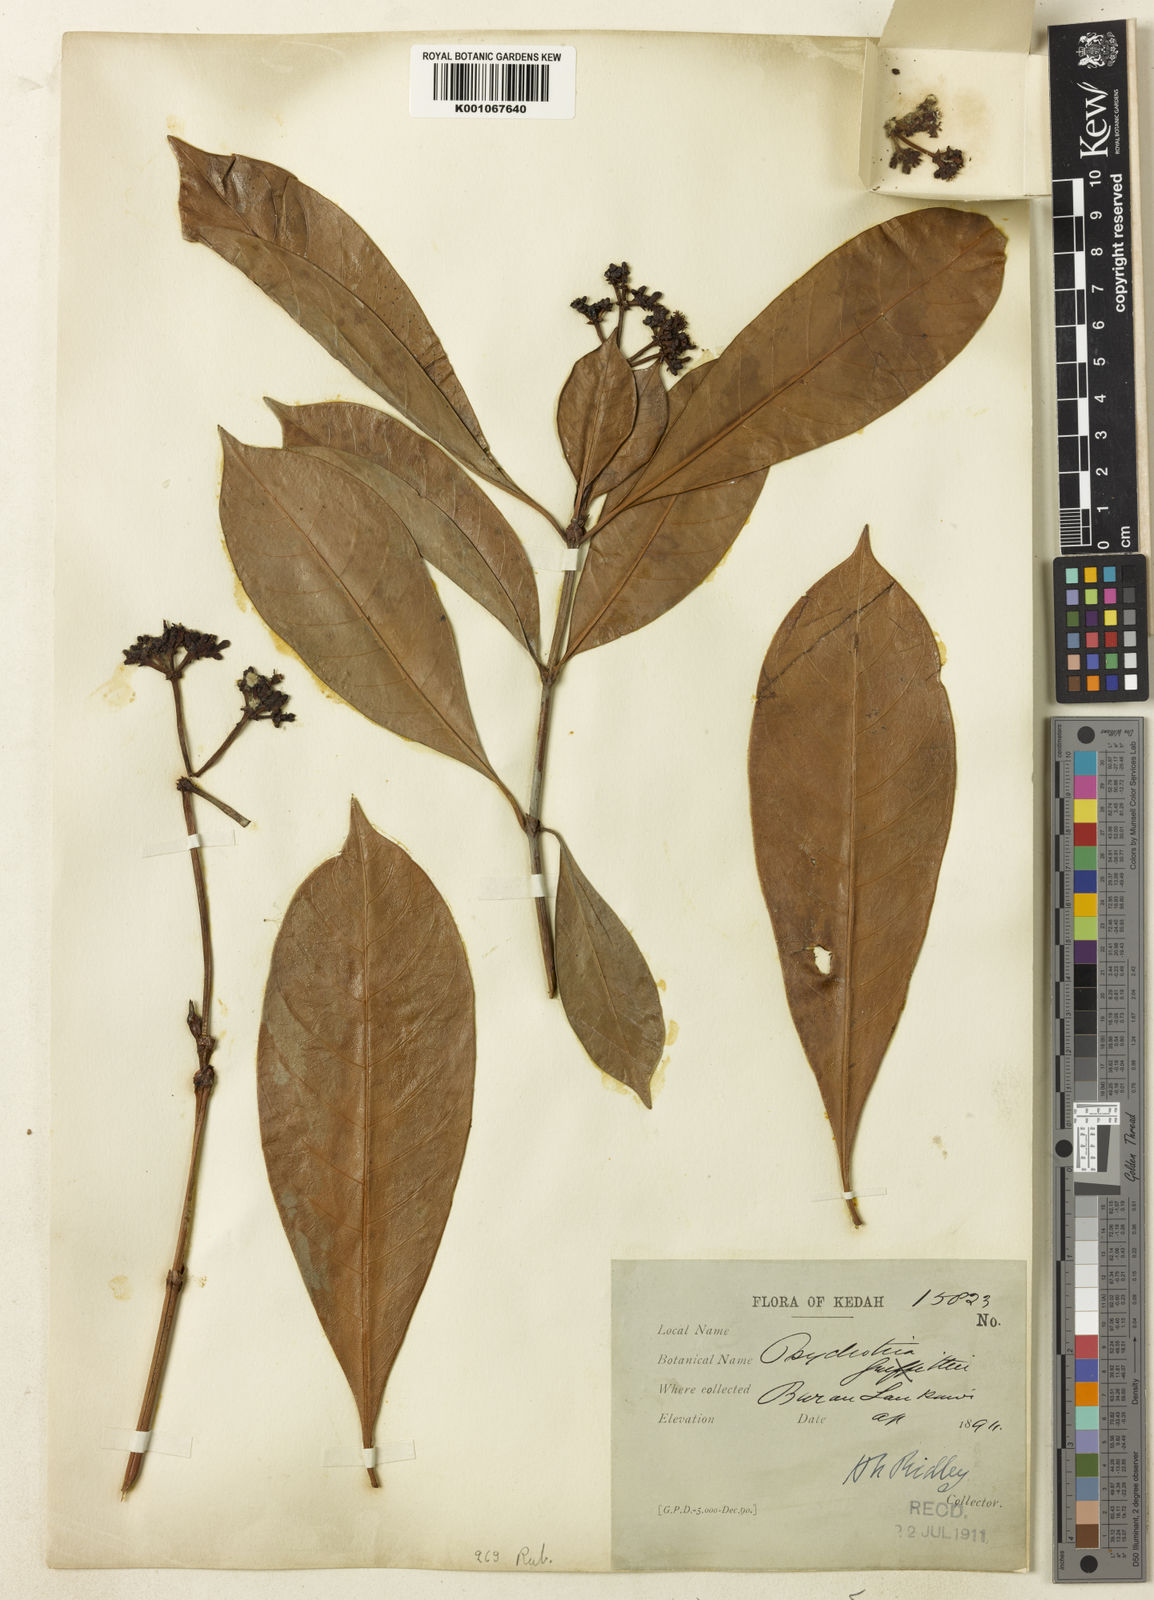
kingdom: Plantae
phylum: Tracheophyta
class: Magnoliopsida
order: Gentianales
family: Rubiaceae
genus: Psychotria
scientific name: Psychotria connata
